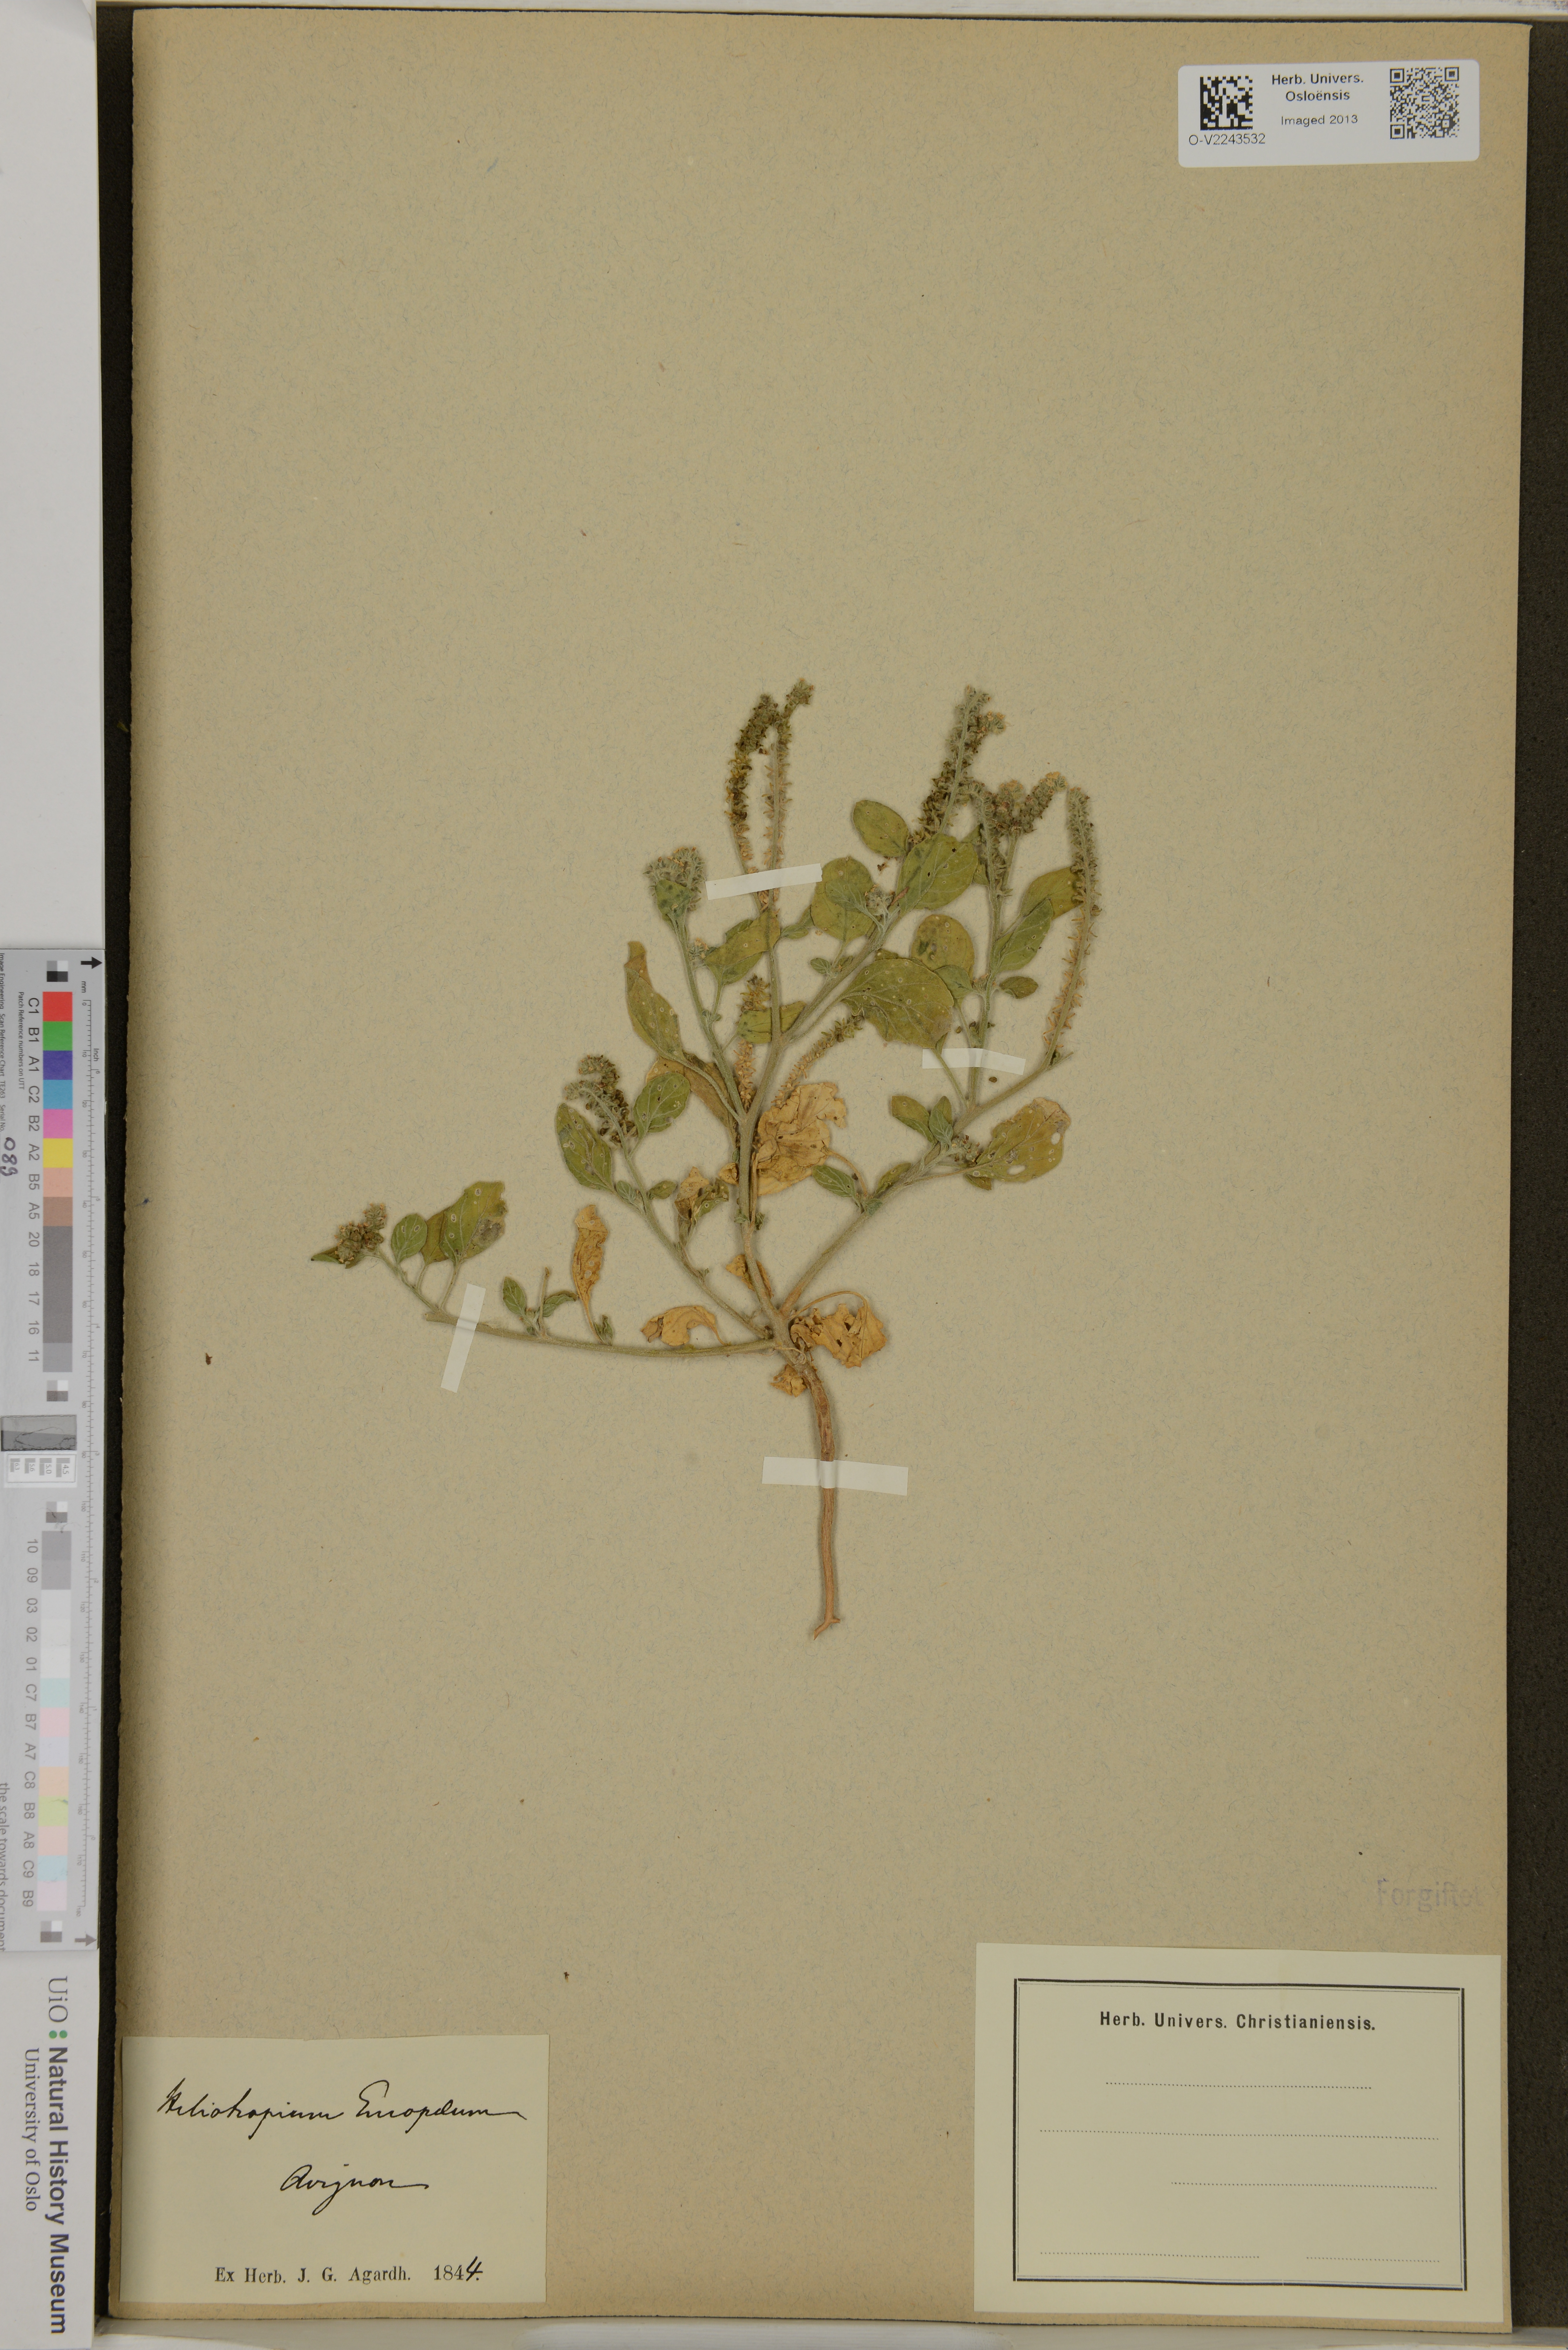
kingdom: Plantae
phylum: Tracheophyta
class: Magnoliopsida
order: Boraginales
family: Heliotropiaceae
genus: Heliotropium
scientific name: Heliotropium europaeum
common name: European heliotrope
